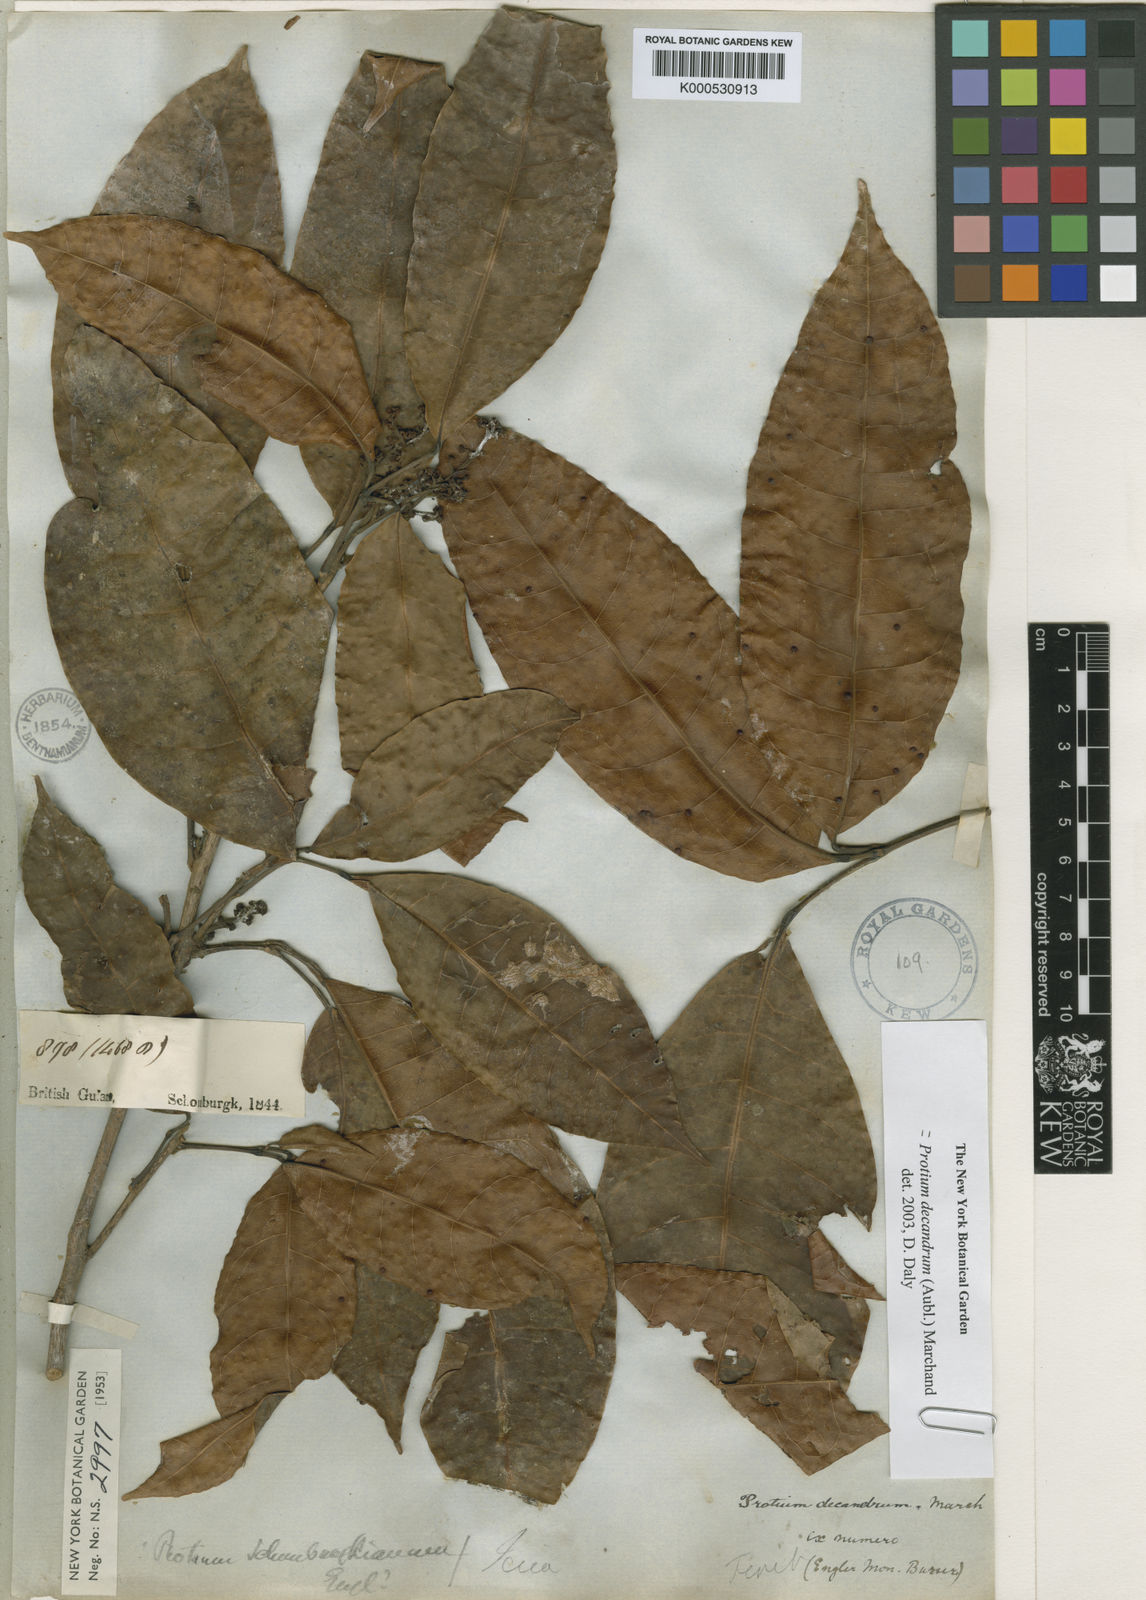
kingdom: Plantae
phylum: Tracheophyta
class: Magnoliopsida
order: Sapindales
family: Burseraceae
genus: Protium
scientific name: Protium decandrum
